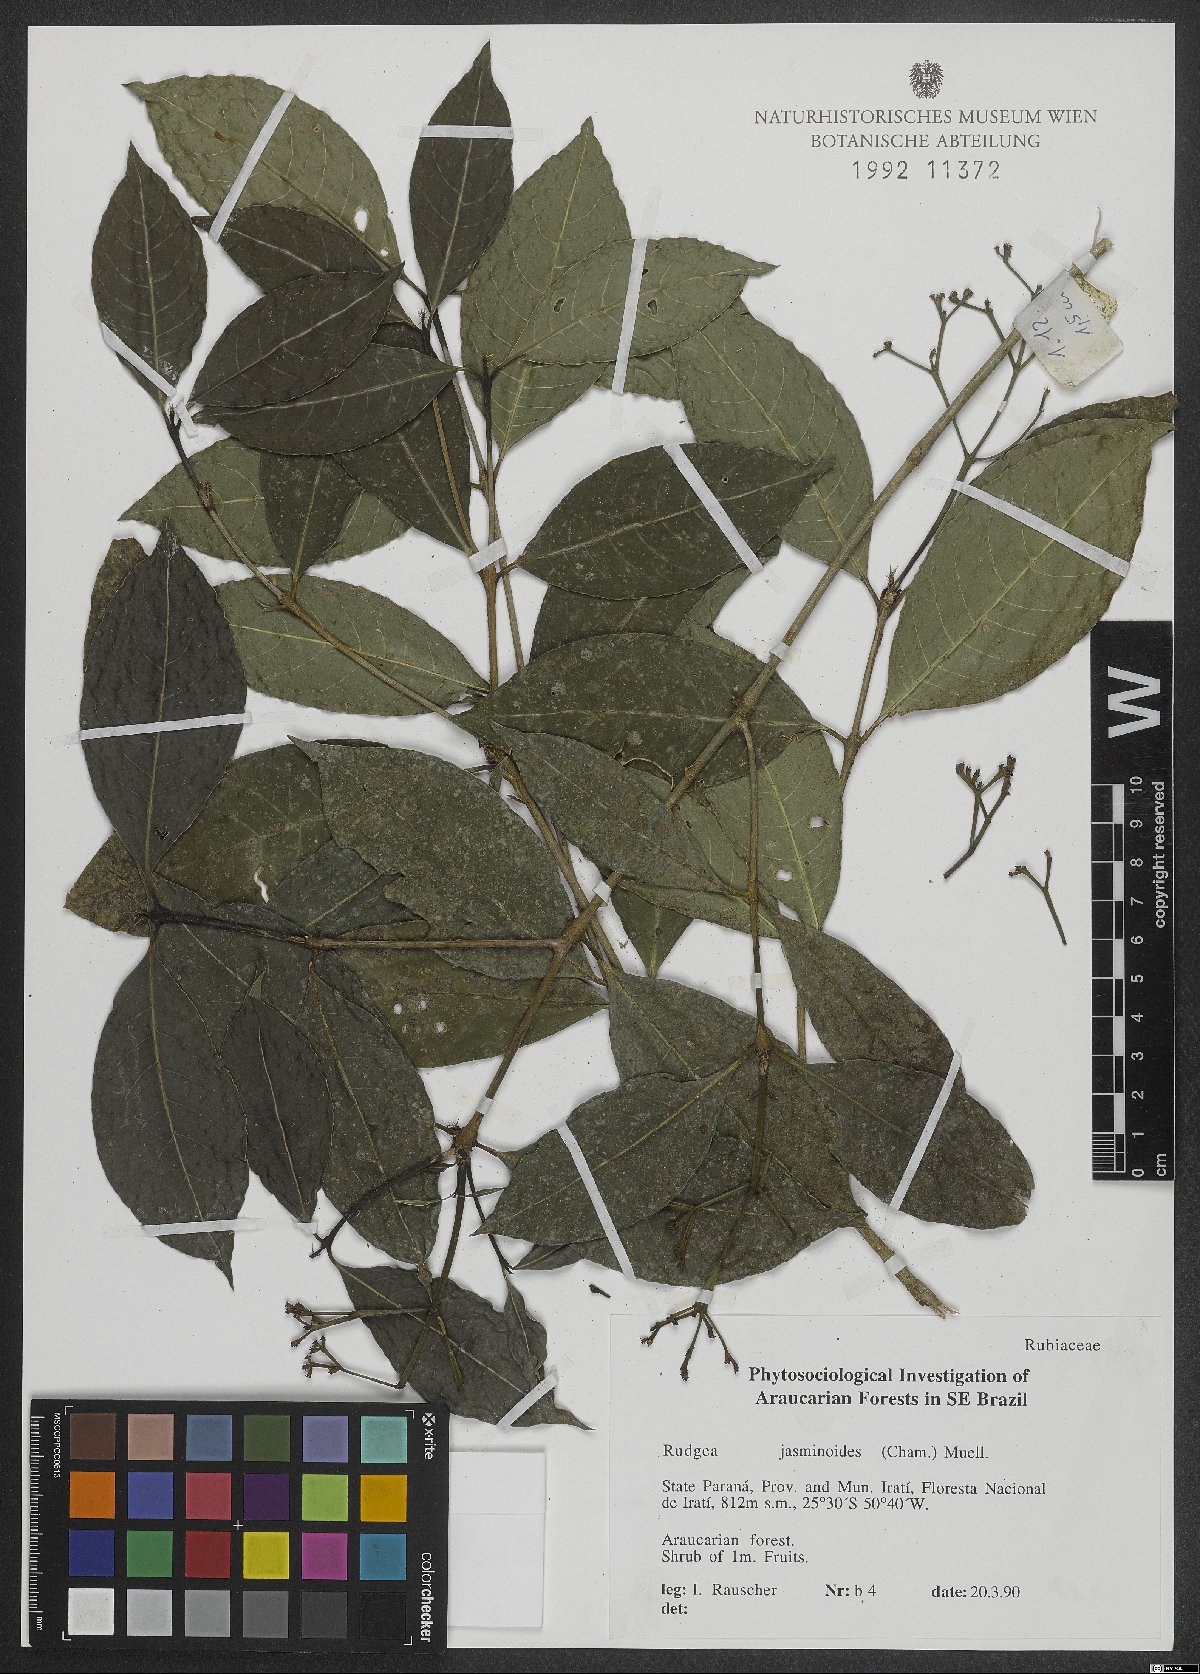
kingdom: Plantae
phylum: Tracheophyta
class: Magnoliopsida
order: Gentianales
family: Rubiaceae
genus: Rudgea
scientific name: Rudgea jasminoides
